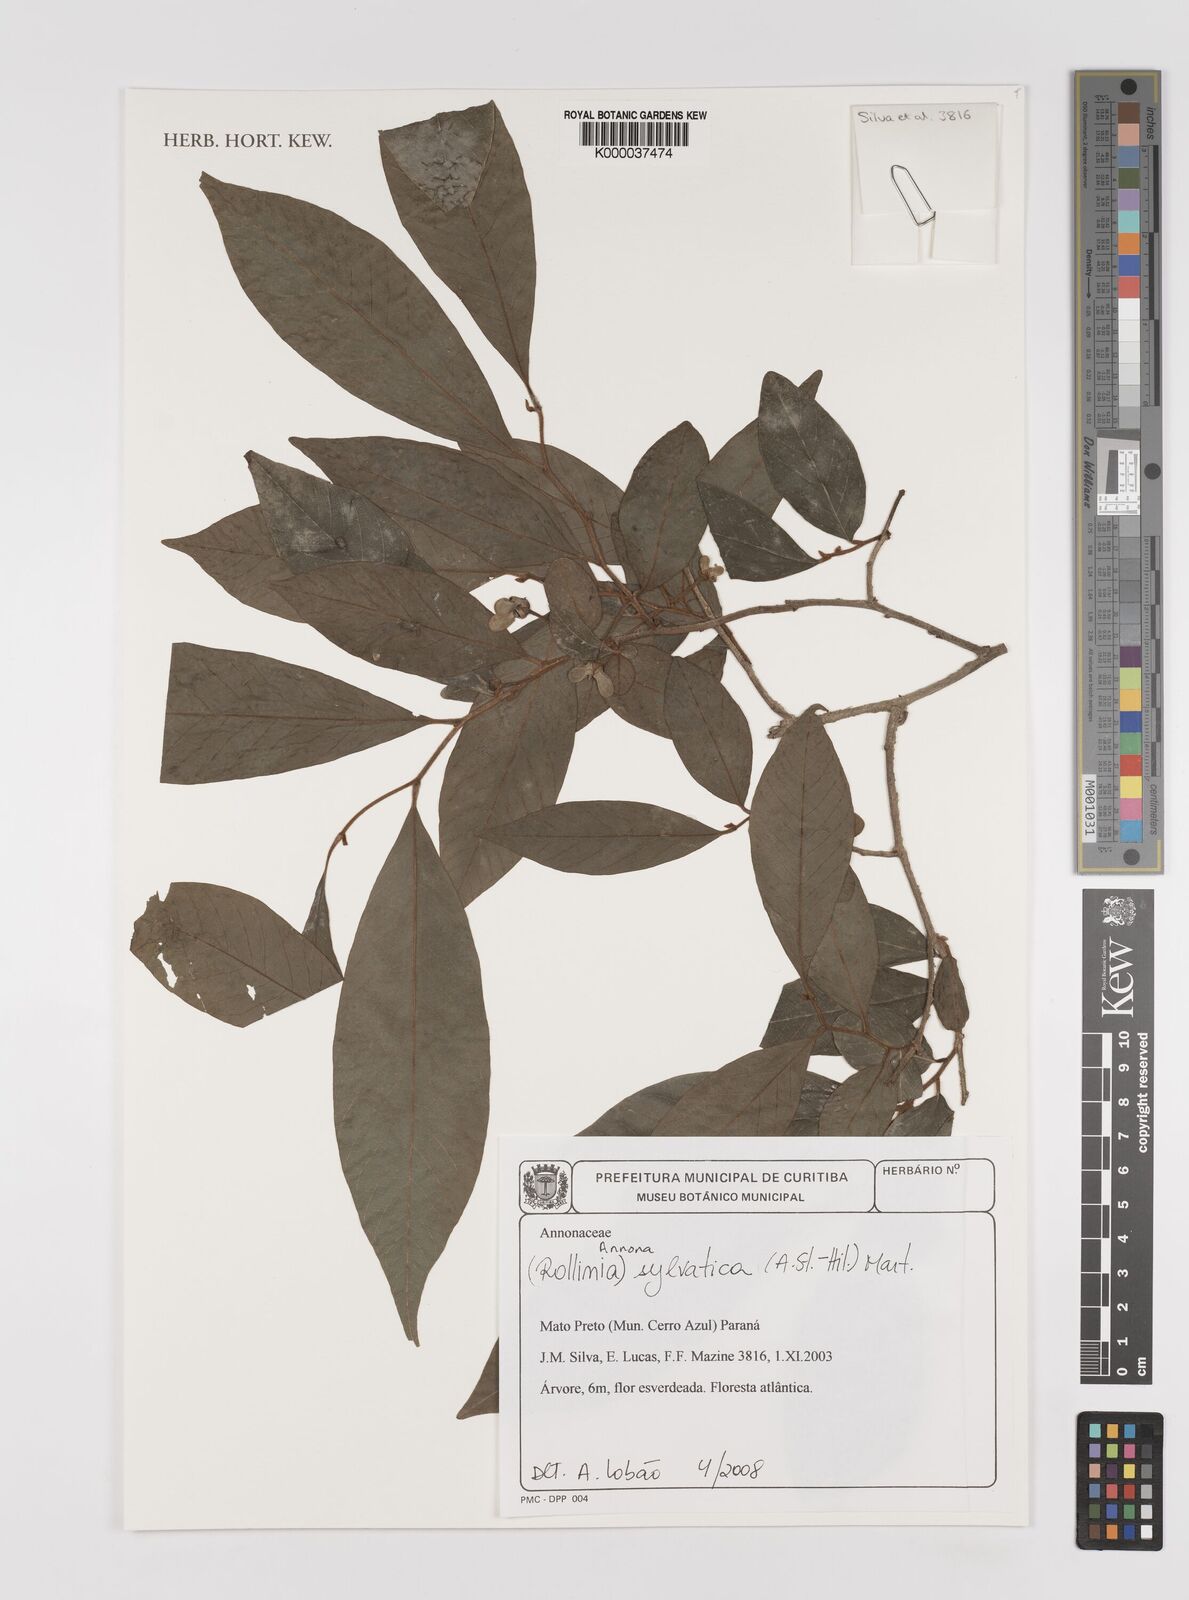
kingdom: Plantae
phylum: Tracheophyta
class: Magnoliopsida
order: Magnoliales
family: Annonaceae
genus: Annona
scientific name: Annona sylvatica
